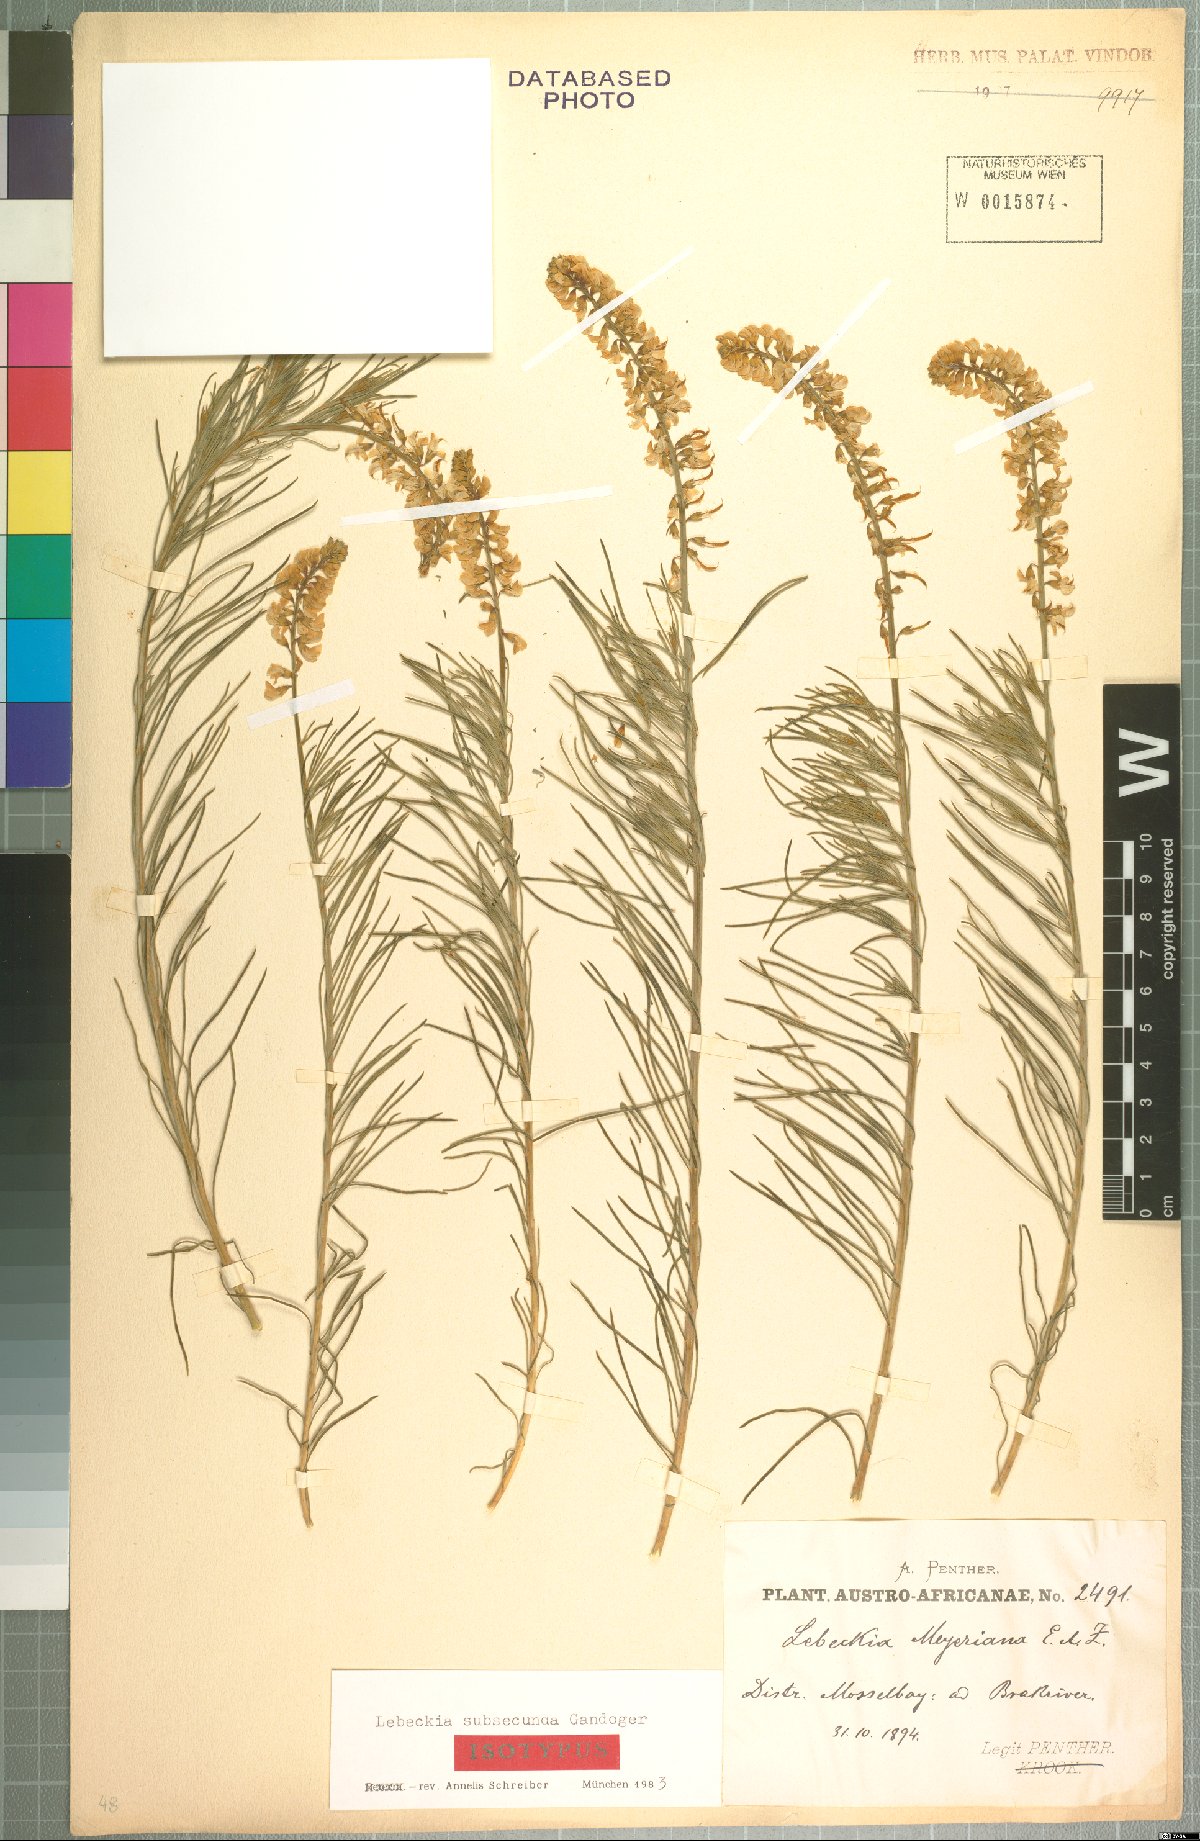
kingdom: Plantae
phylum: Tracheophyta
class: Magnoliopsida
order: Fabales
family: Fabaceae
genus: Lebeckia
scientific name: Lebeckia gracilis
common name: Slender ganna
